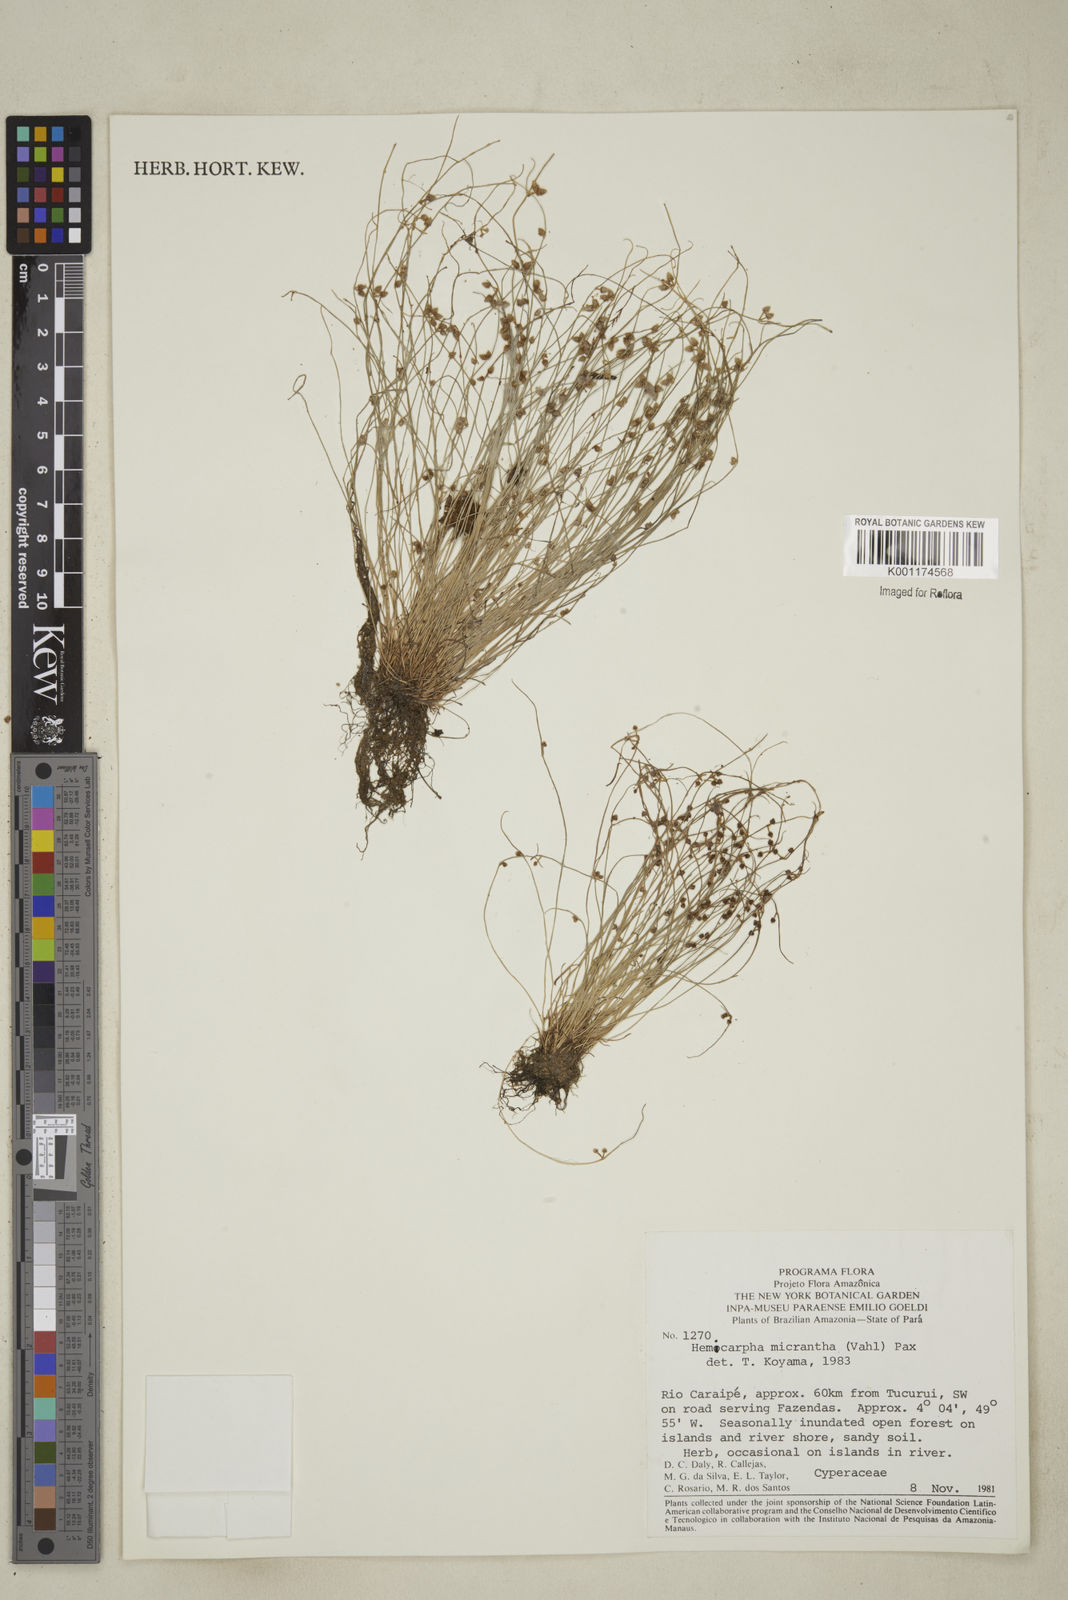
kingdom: Plantae
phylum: Tracheophyta
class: Liliopsida
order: Poales
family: Cyperaceae
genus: Cyperus
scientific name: Cyperus
